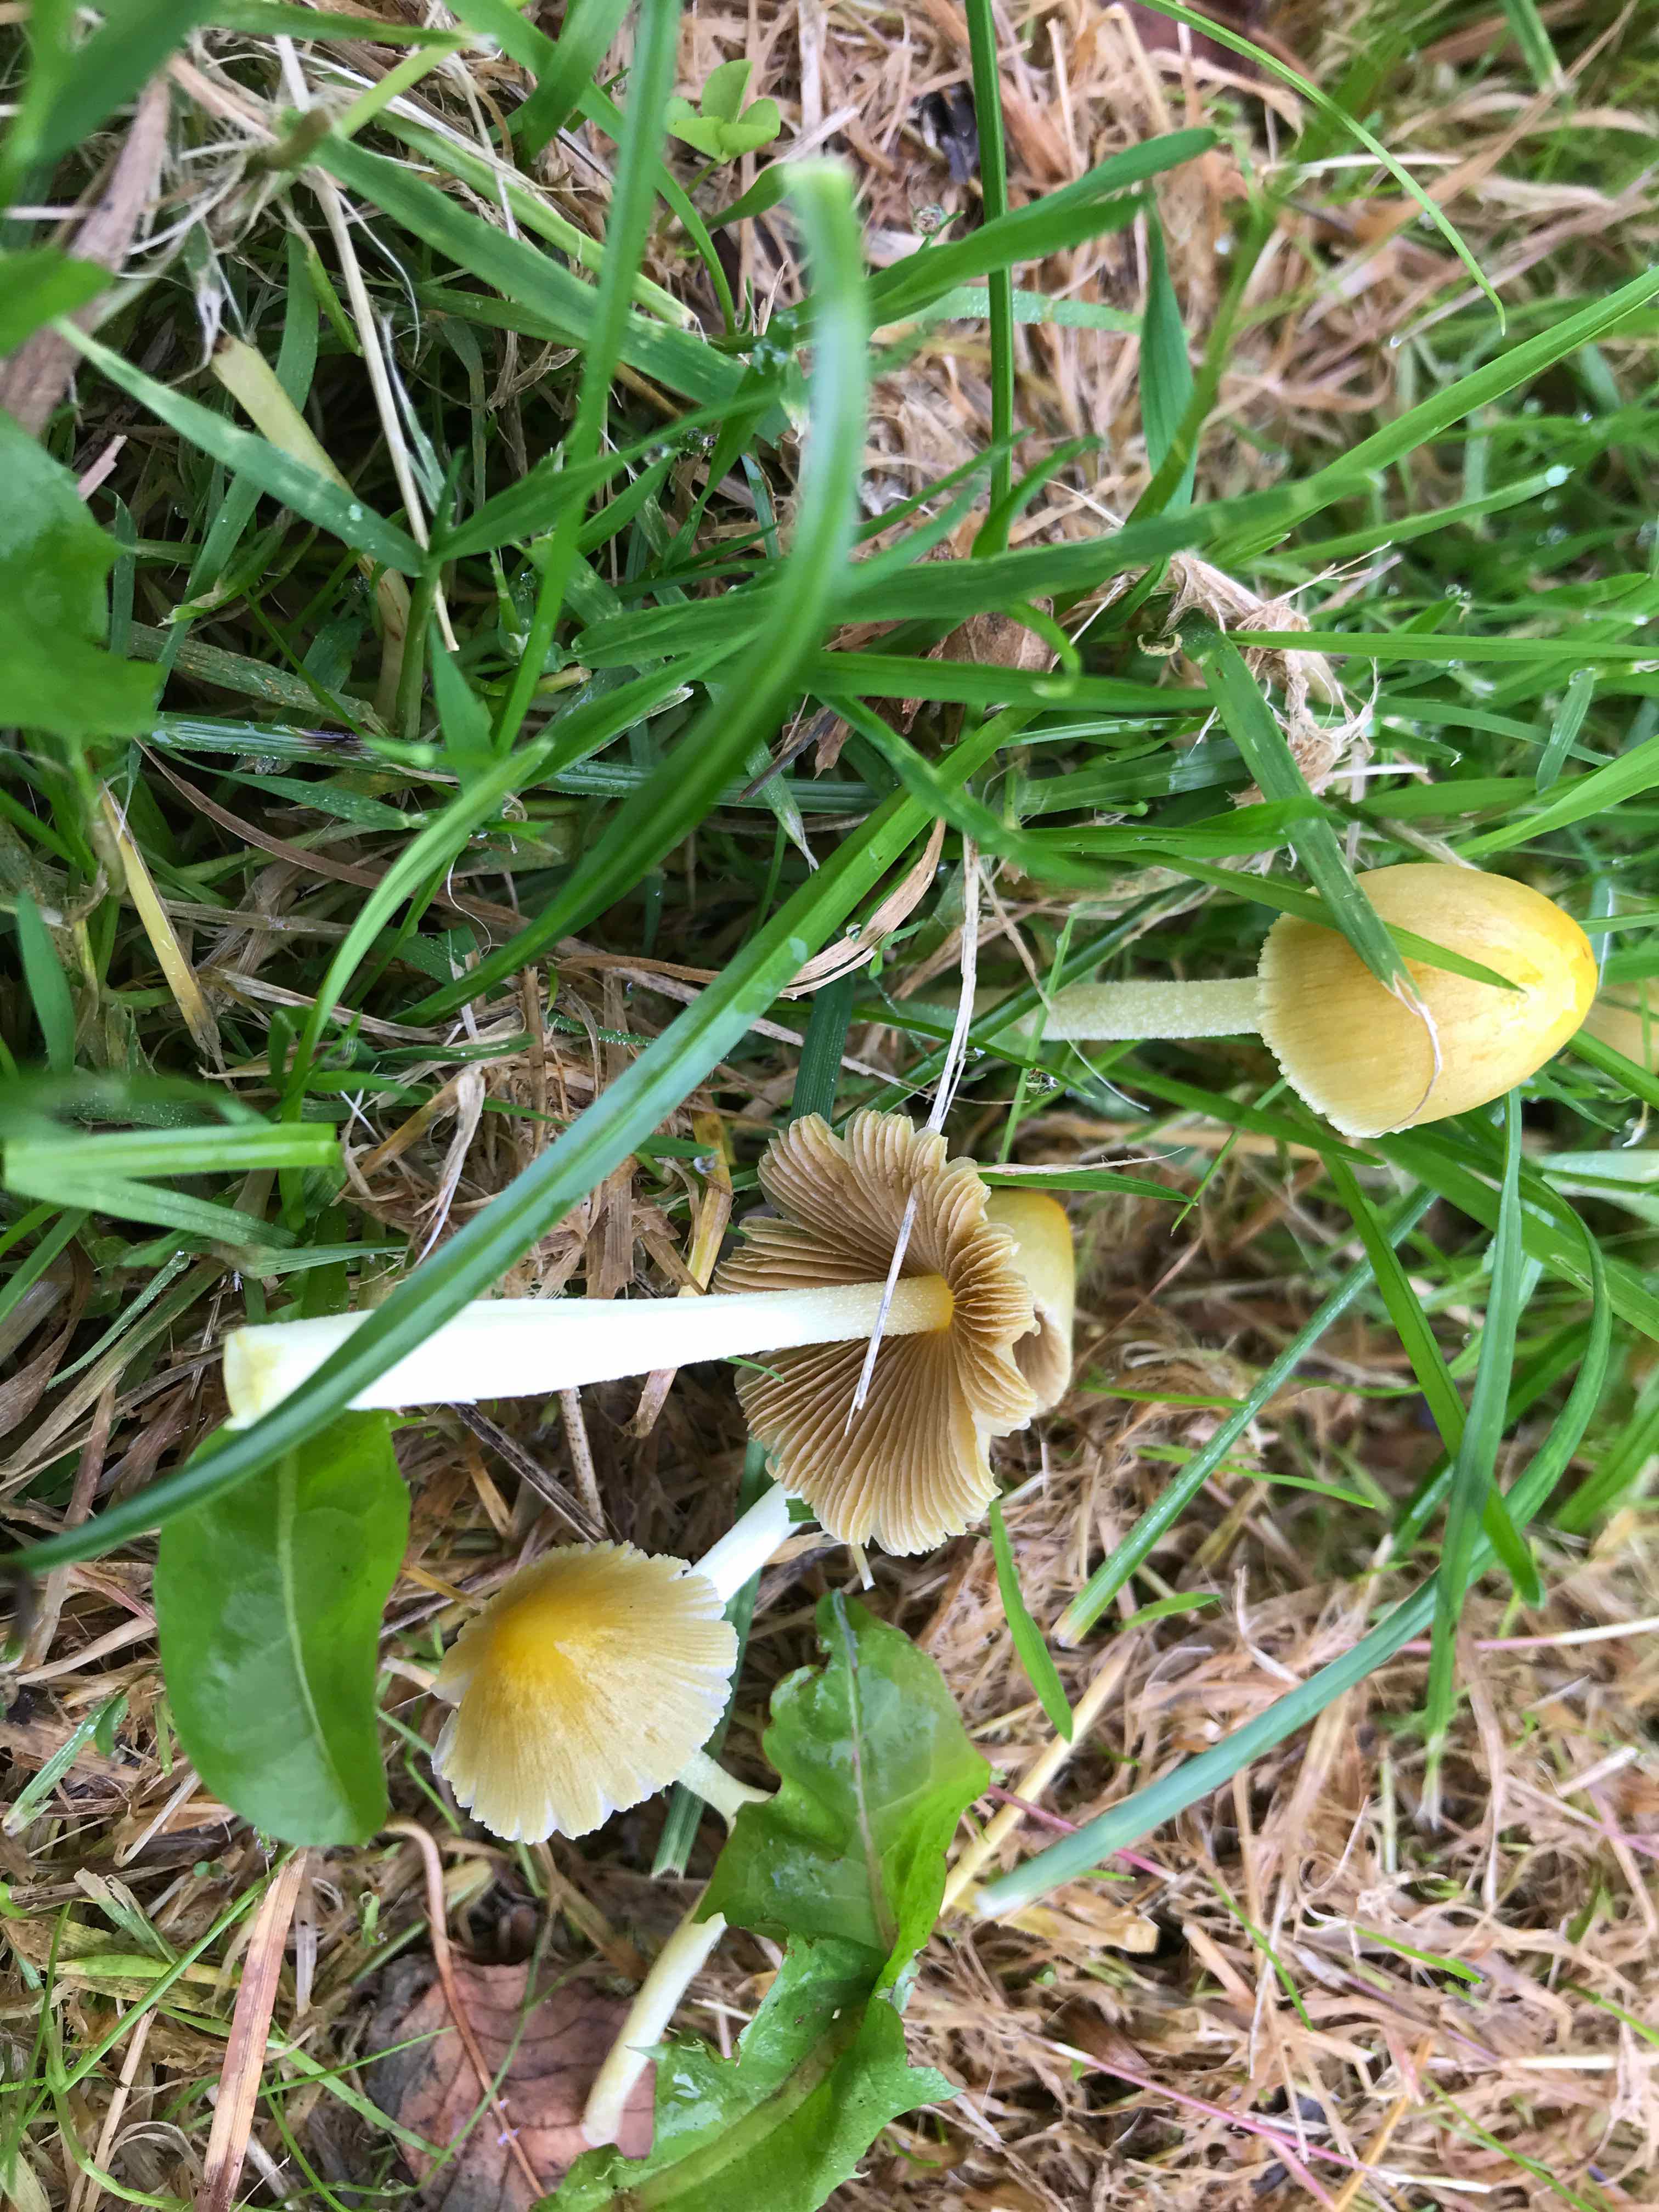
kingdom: Fungi
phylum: Basidiomycota
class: Agaricomycetes
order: Agaricales
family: Bolbitiaceae
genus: Bolbitius
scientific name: Bolbitius titubans
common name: almindelig gulhat
